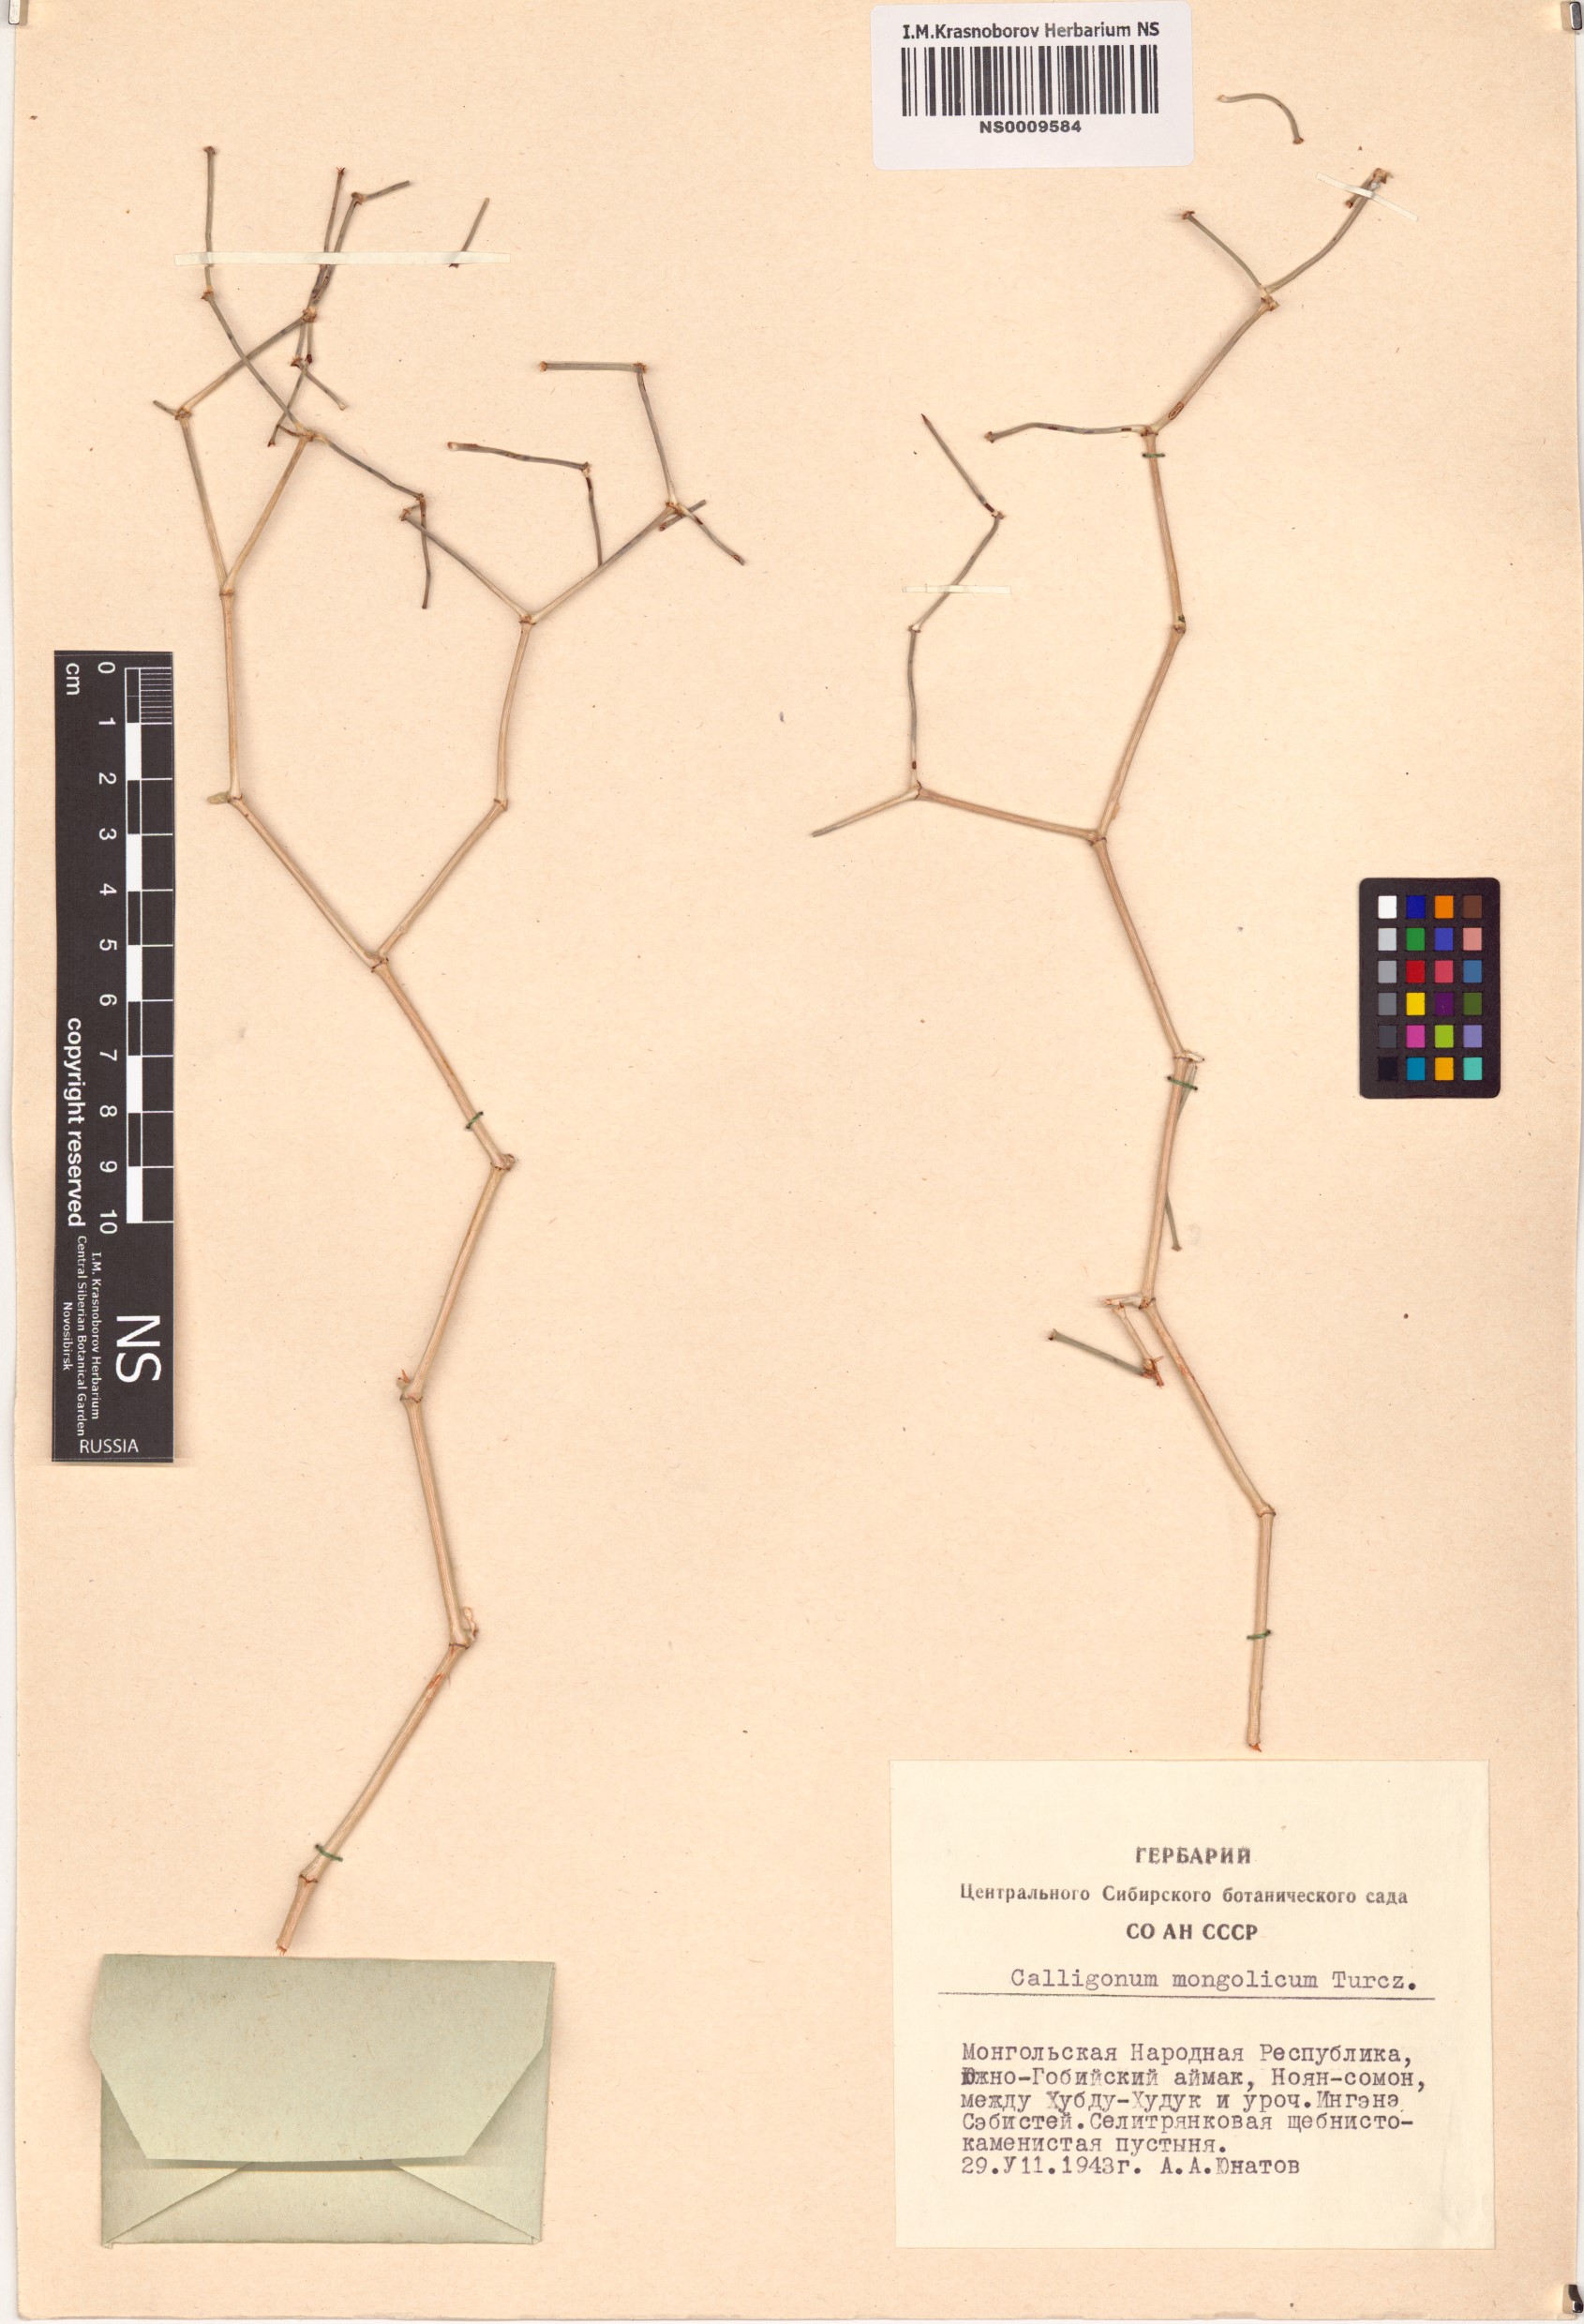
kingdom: Plantae
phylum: Tracheophyta
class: Magnoliopsida
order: Caryophyllales
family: Polygonaceae
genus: Calligonum
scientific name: Calligonum mongolicum
